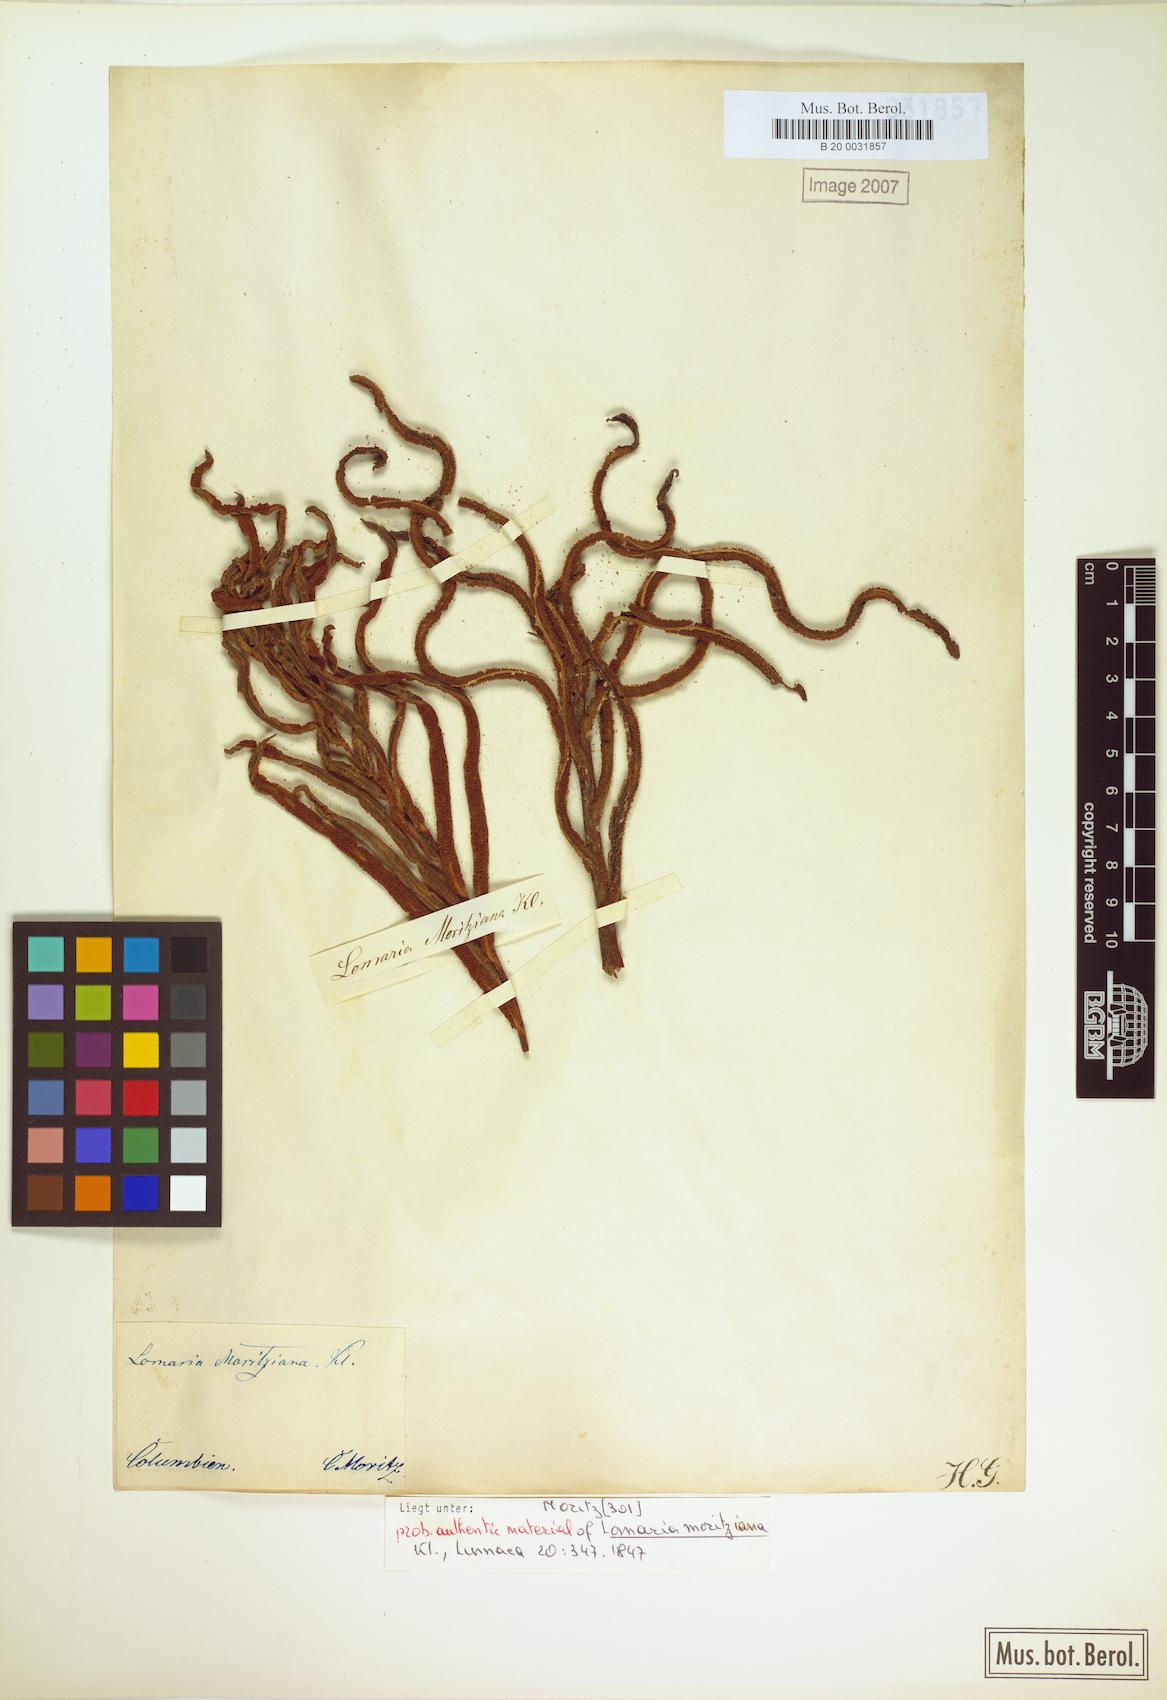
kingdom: Plantae
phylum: Tracheophyta
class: Polypodiopsida
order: Polypodiales
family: Blechnaceae
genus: Lomariocycas
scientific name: Lomariocycas moritziana
